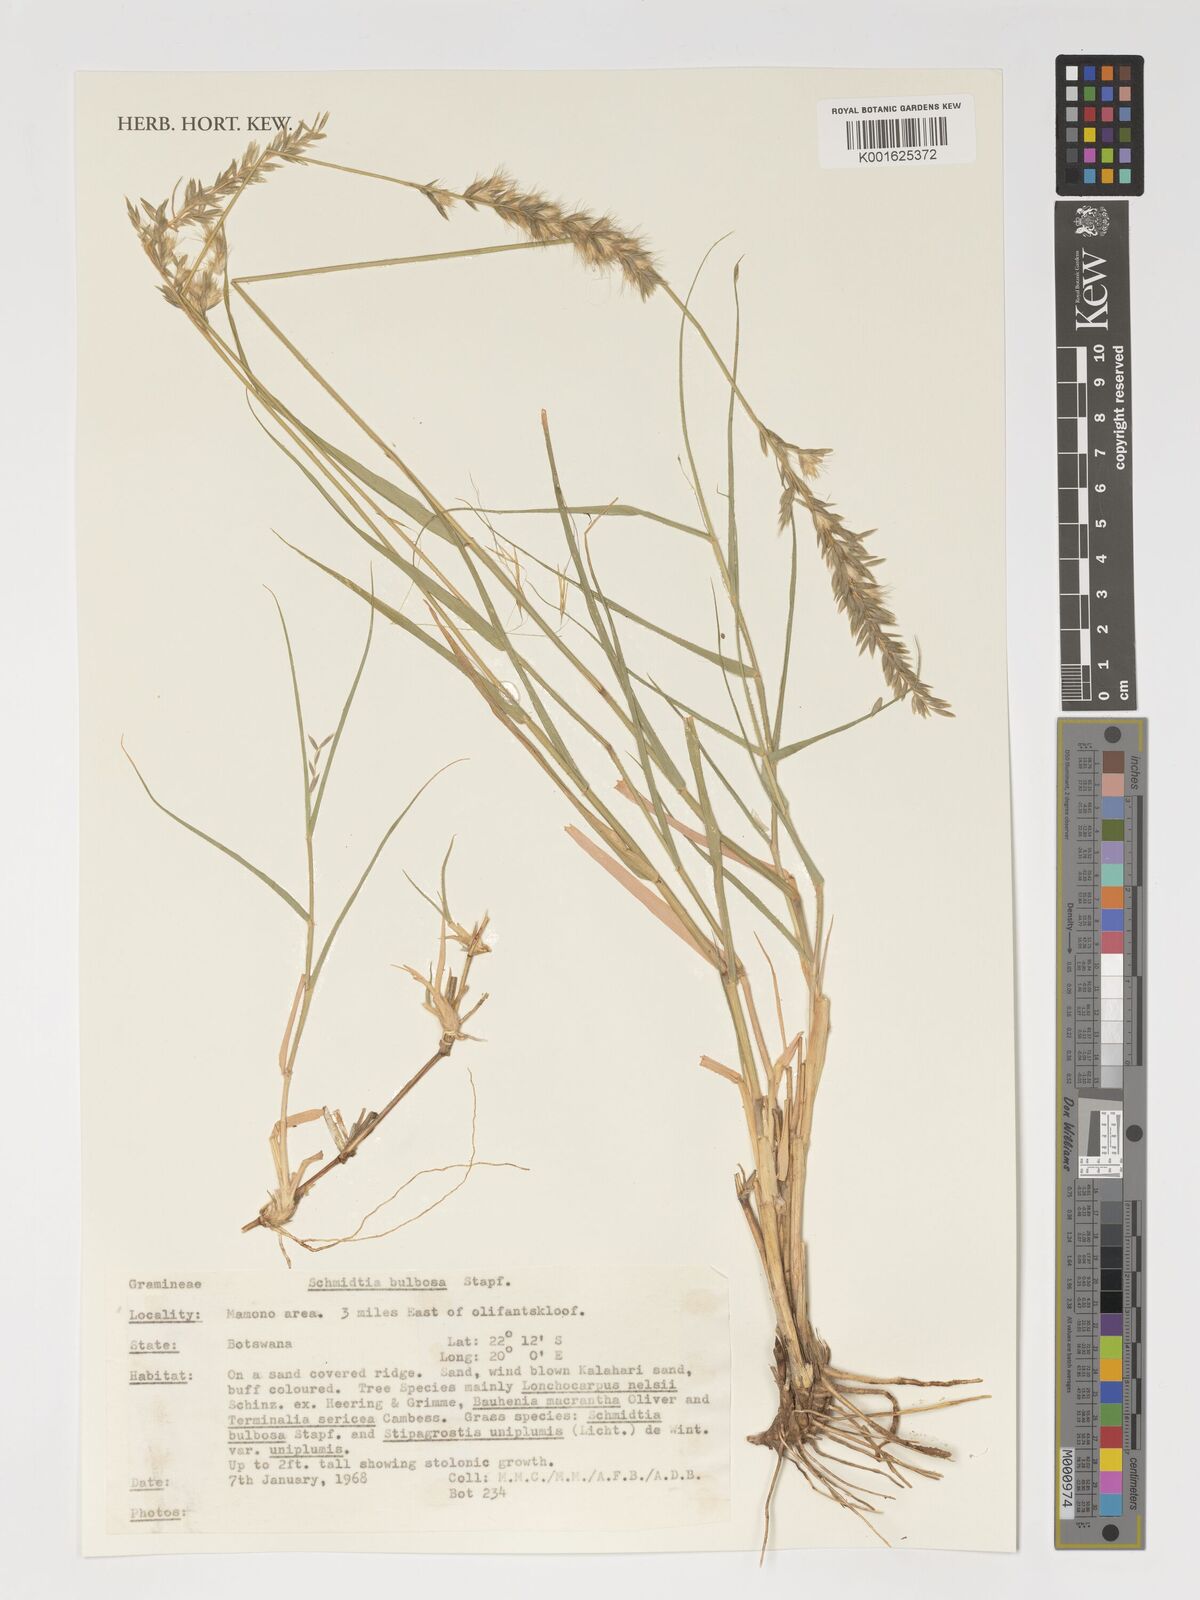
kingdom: Plantae
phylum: Tracheophyta
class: Liliopsida
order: Poales
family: Poaceae
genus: Schmidtia
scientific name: Schmidtia pappophoroides
